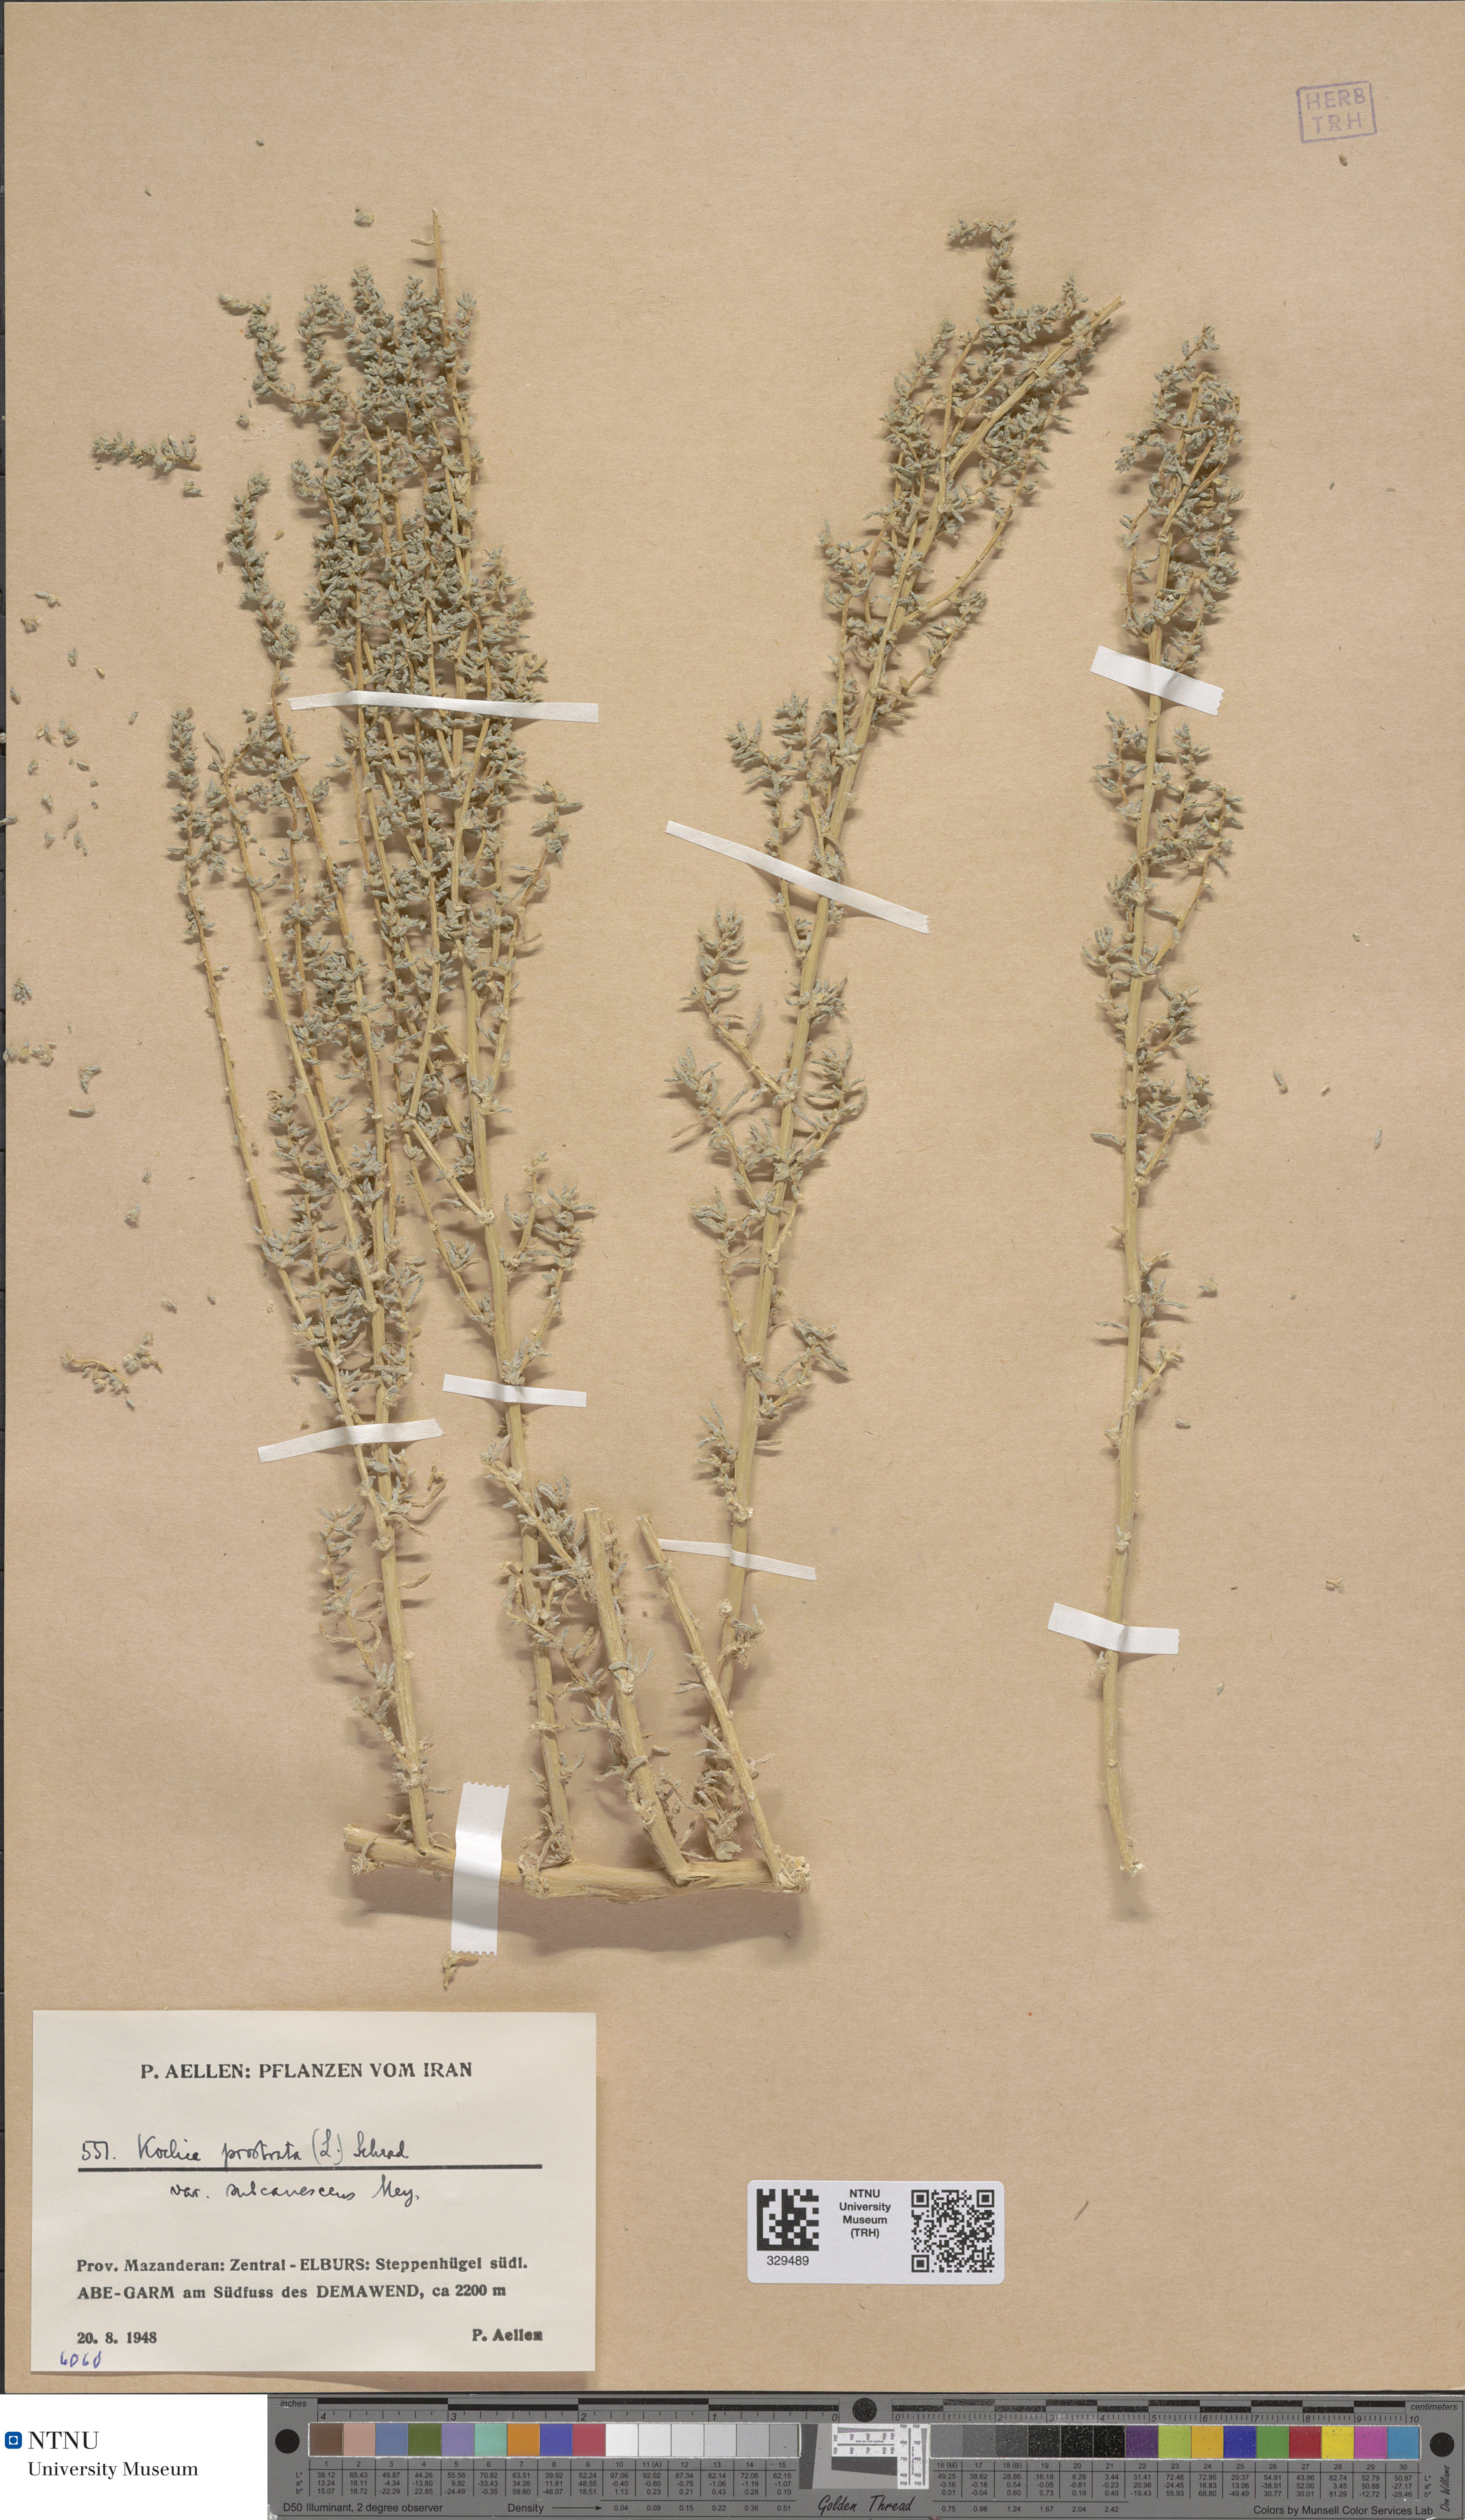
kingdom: Plantae
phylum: Tracheophyta
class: Magnoliopsida
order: Caryophyllales
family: Amaranthaceae
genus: Bassia
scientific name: Bassia prostrata
